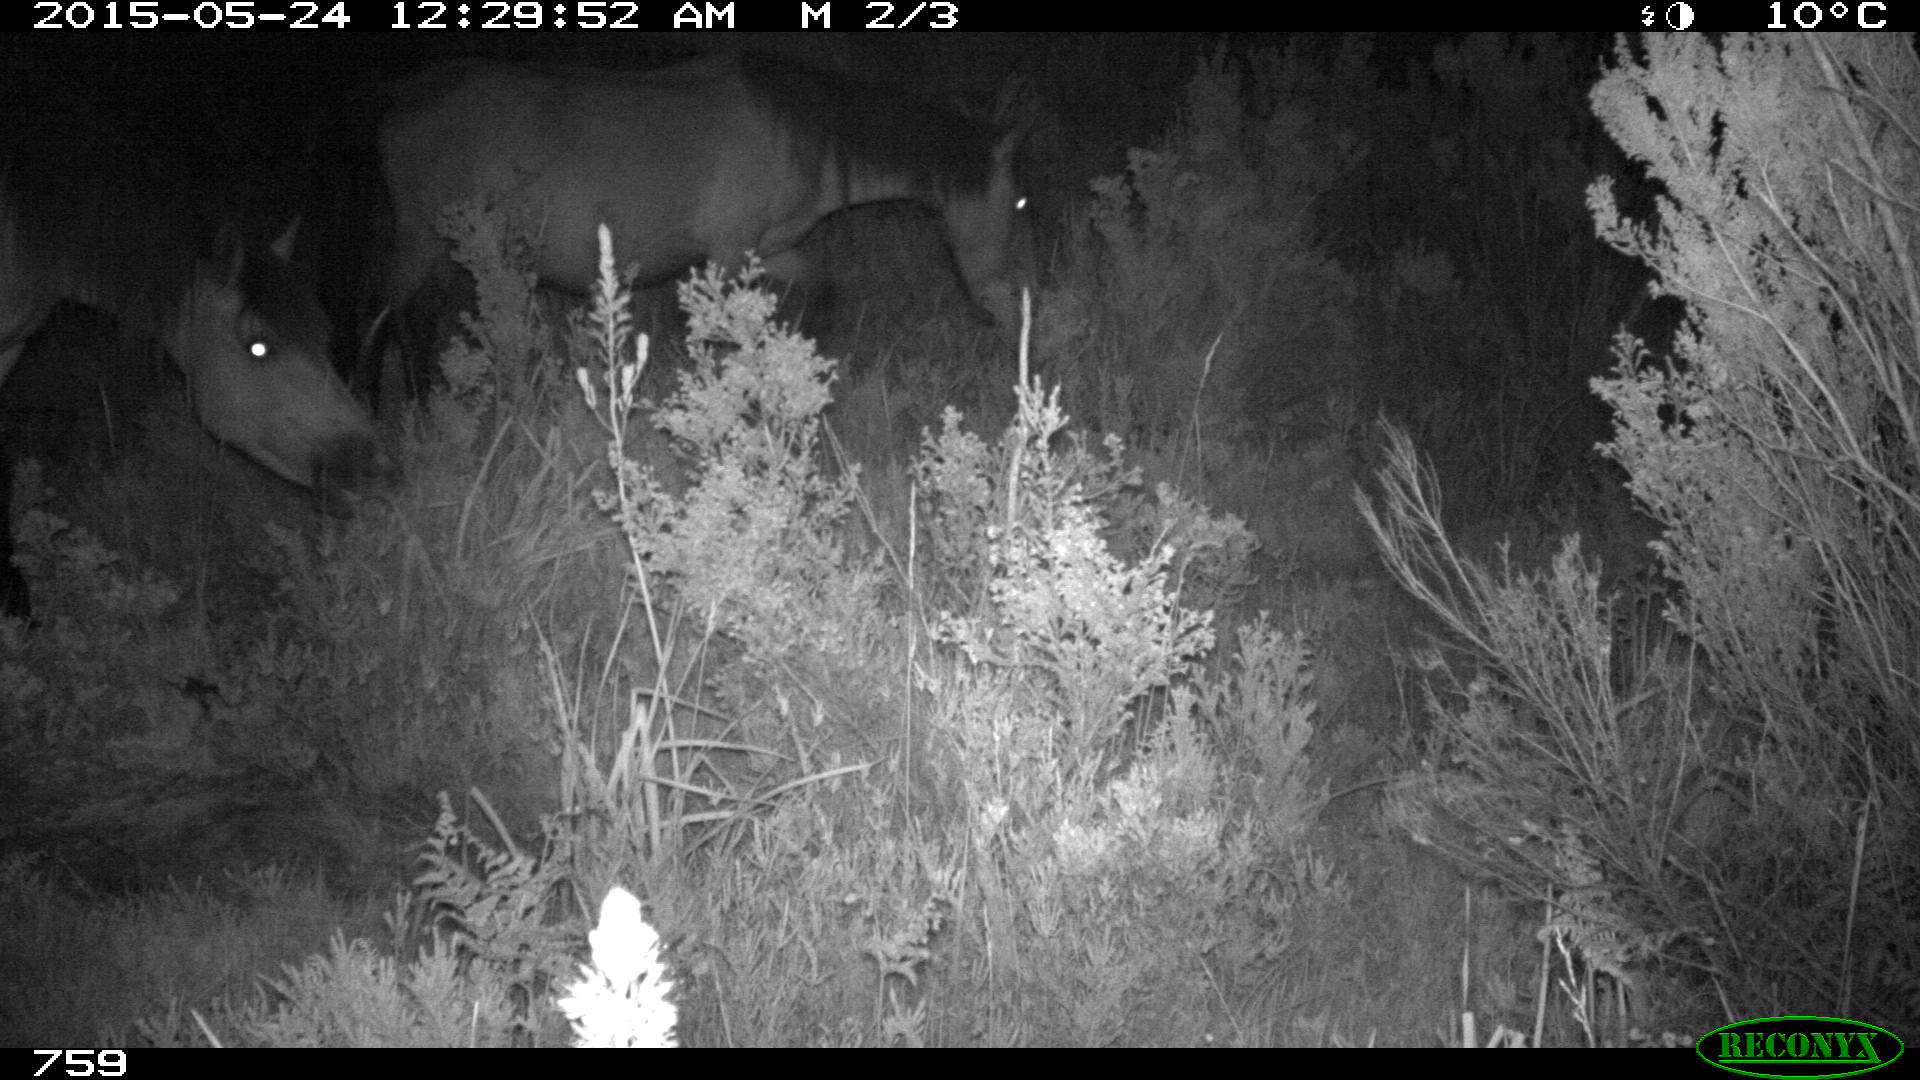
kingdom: Animalia
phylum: Chordata
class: Mammalia
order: Perissodactyla
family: Equidae
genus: Equus
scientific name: Equus caballus
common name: Horse
